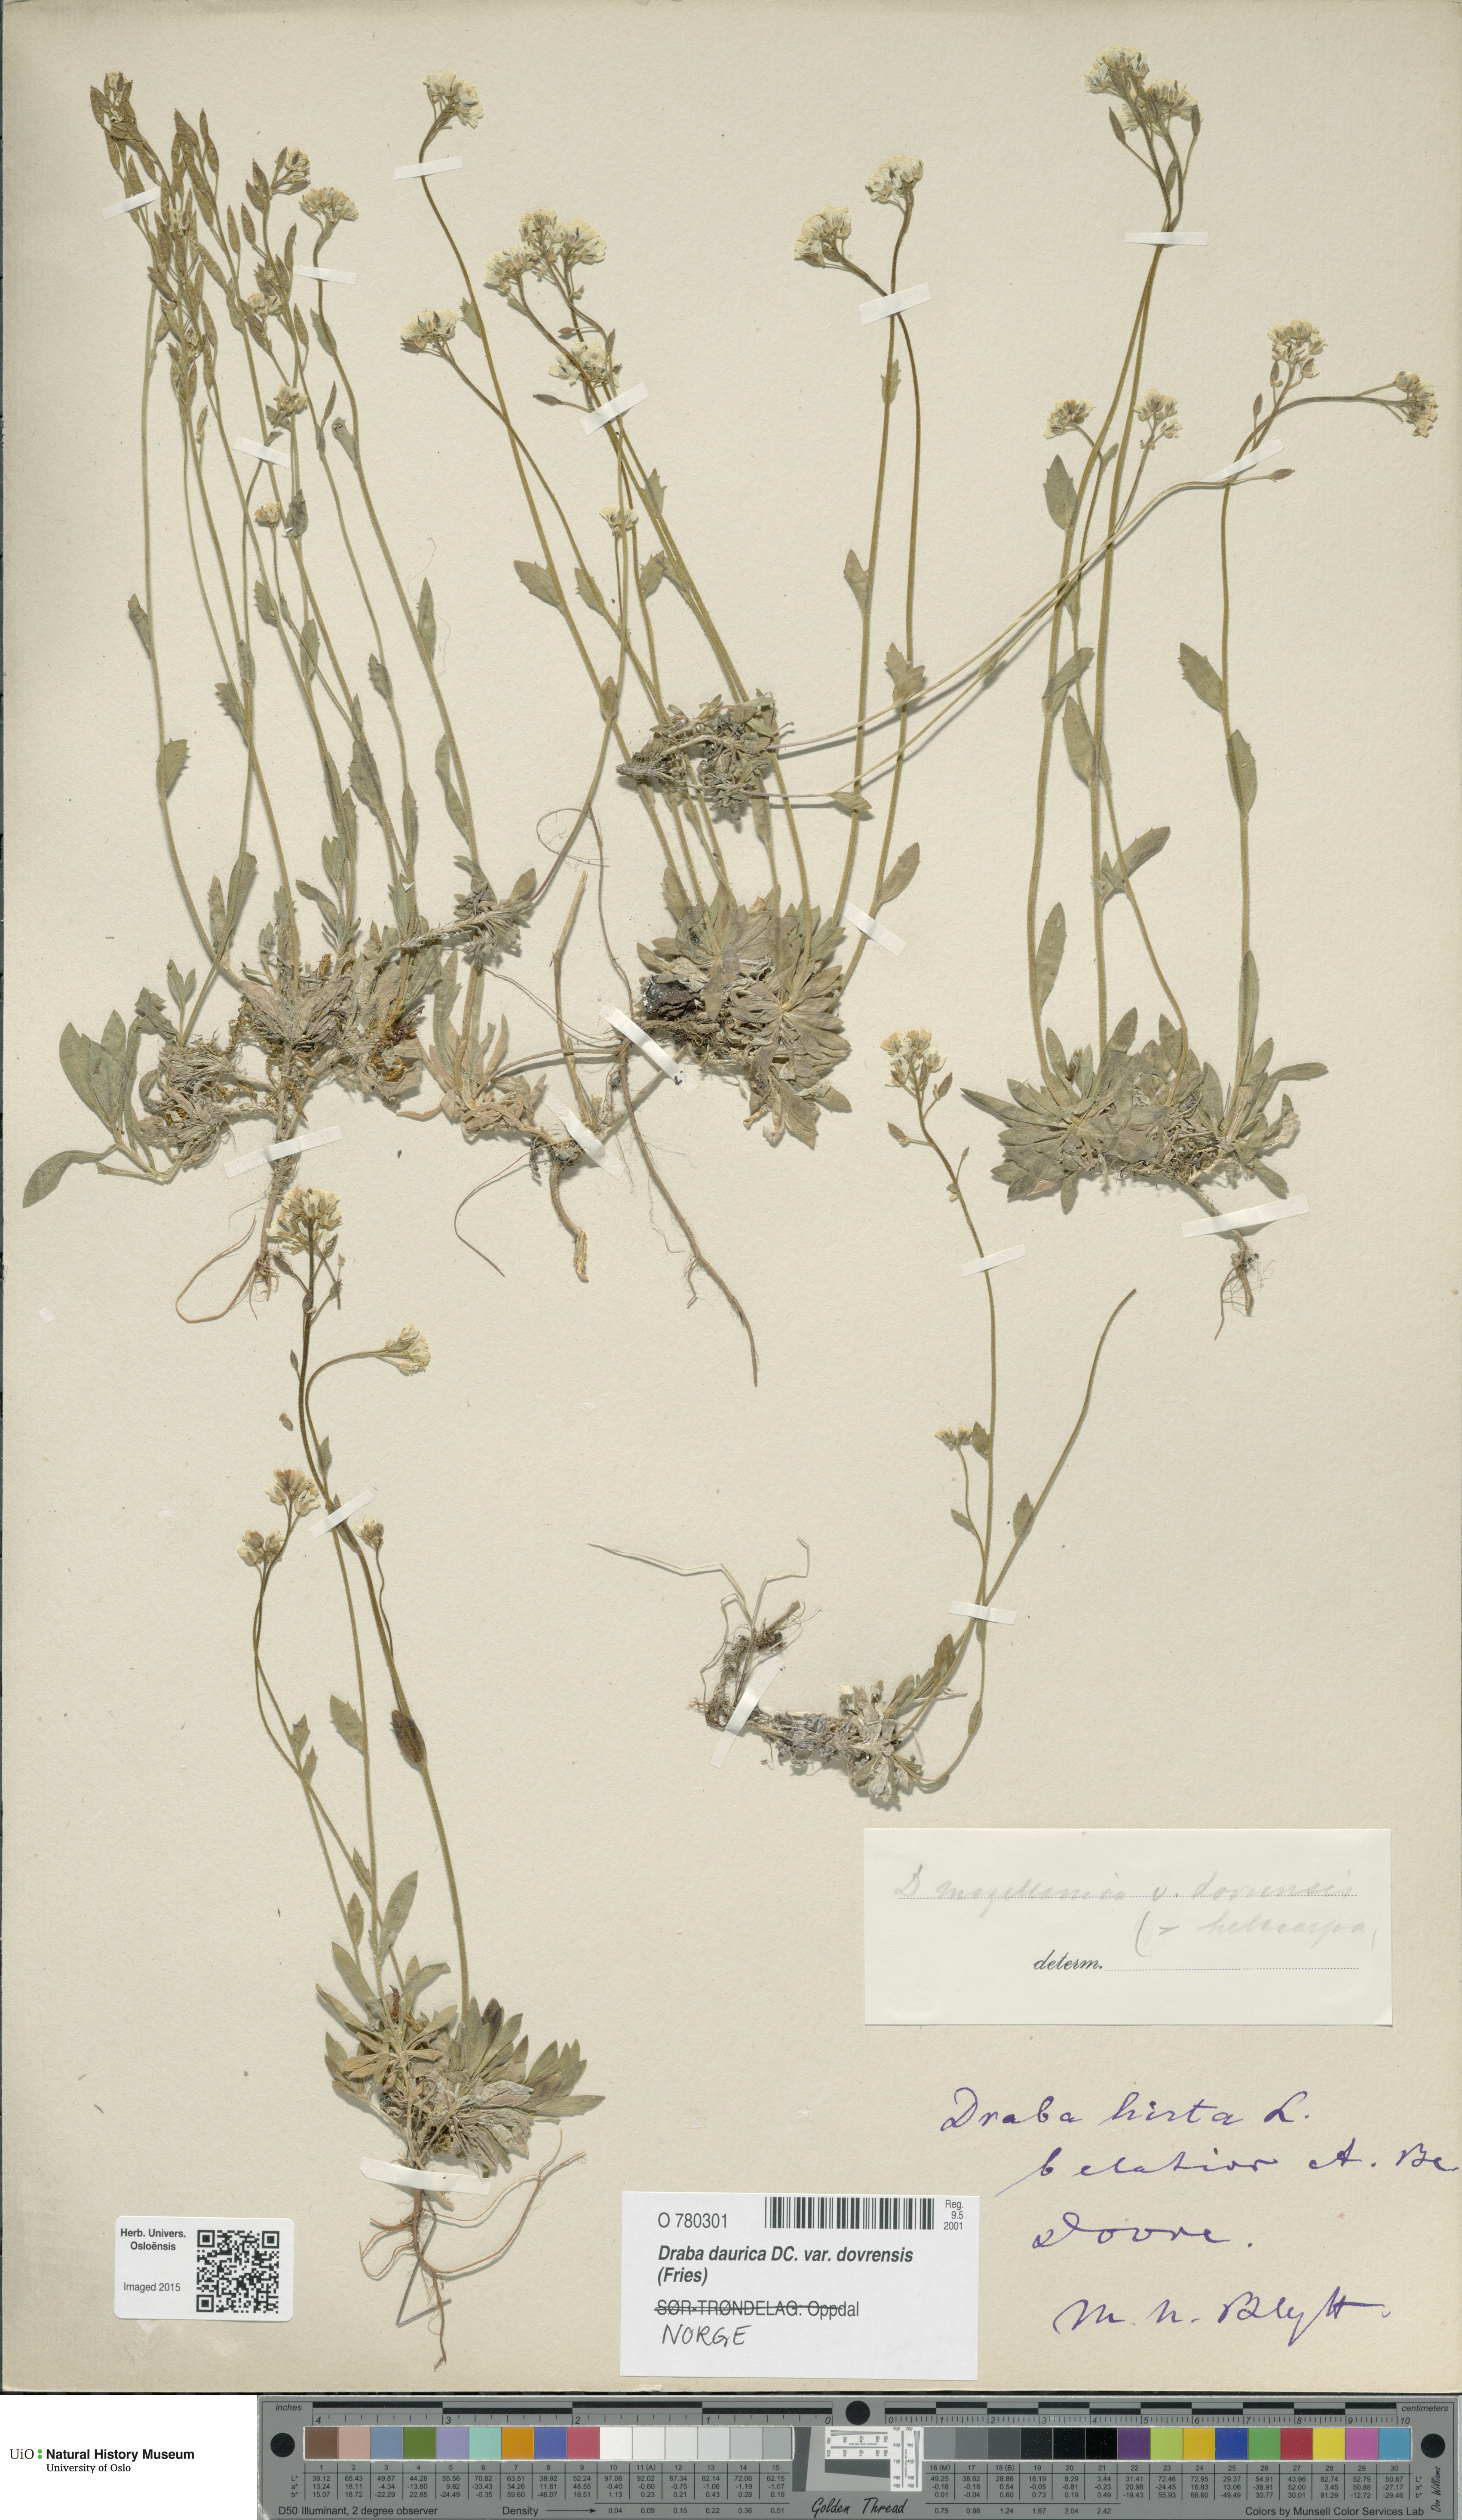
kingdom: Plantae
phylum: Tracheophyta
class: Magnoliopsida
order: Brassicales
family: Brassicaceae
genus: Draba
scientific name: Draba glabella
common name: Glaucous draba
